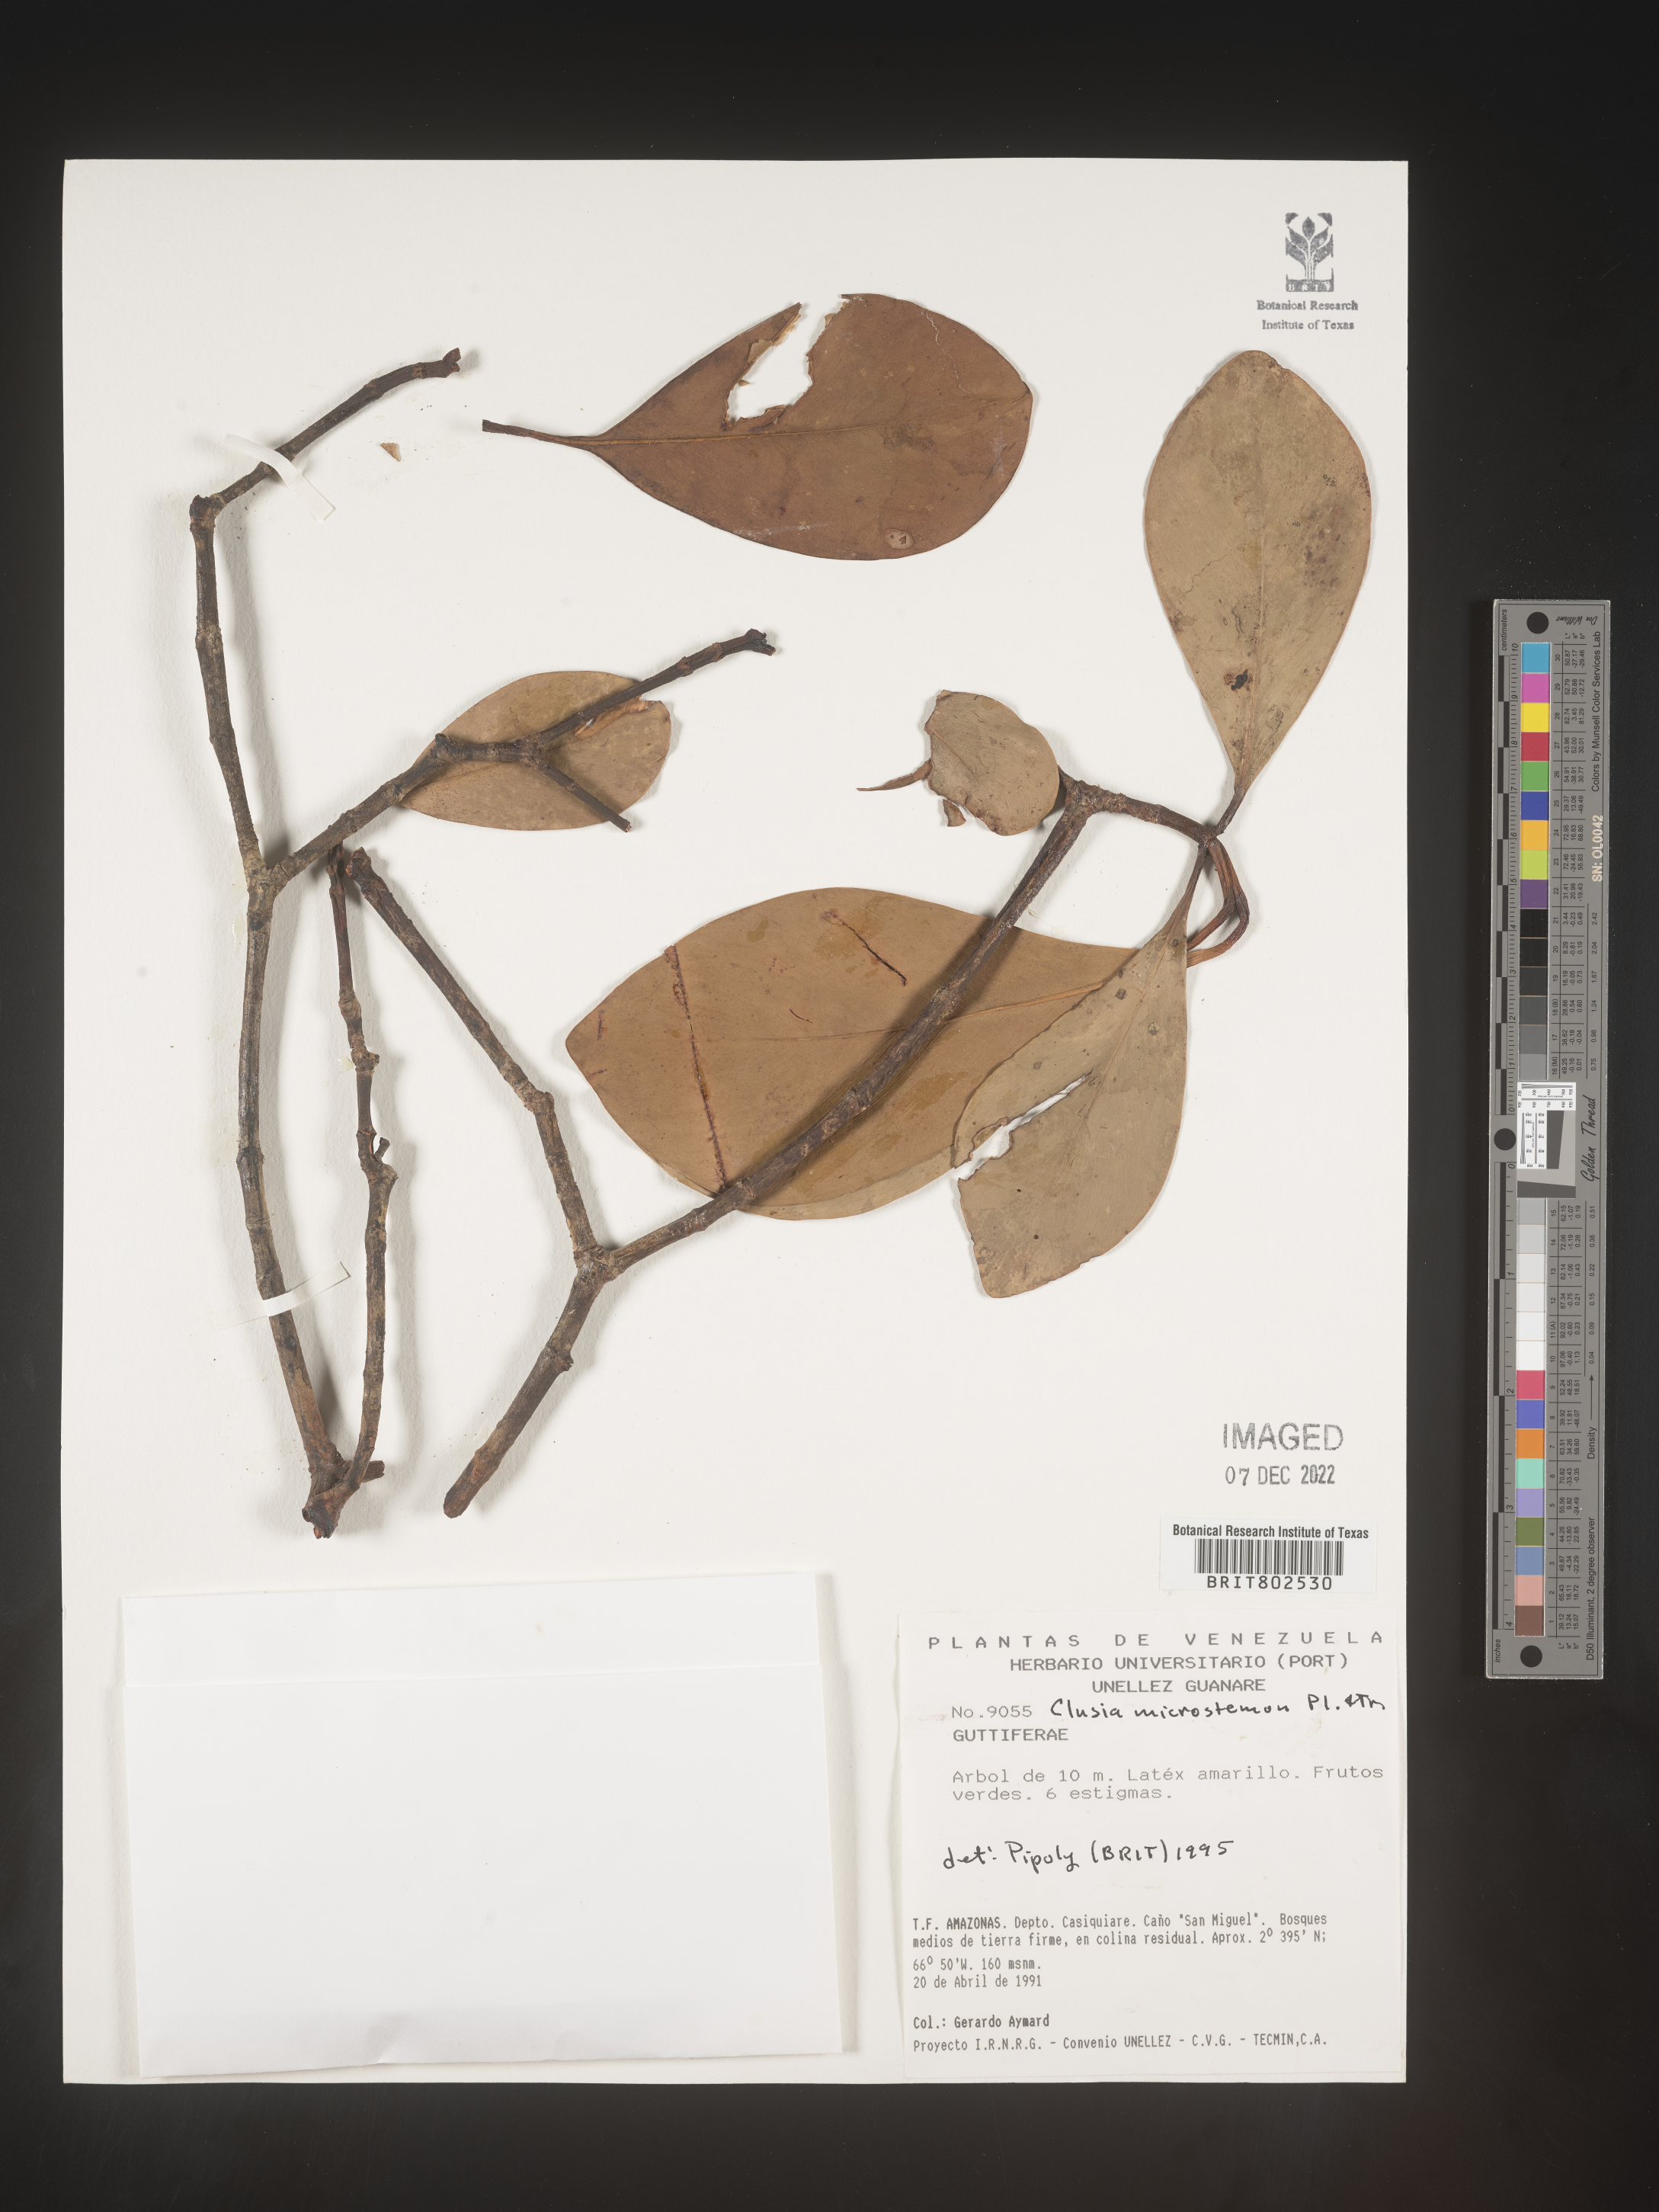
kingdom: Plantae
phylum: Tracheophyta
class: Magnoliopsida
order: Malpighiales
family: Clusiaceae
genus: Clusia
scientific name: Clusia microstemon
